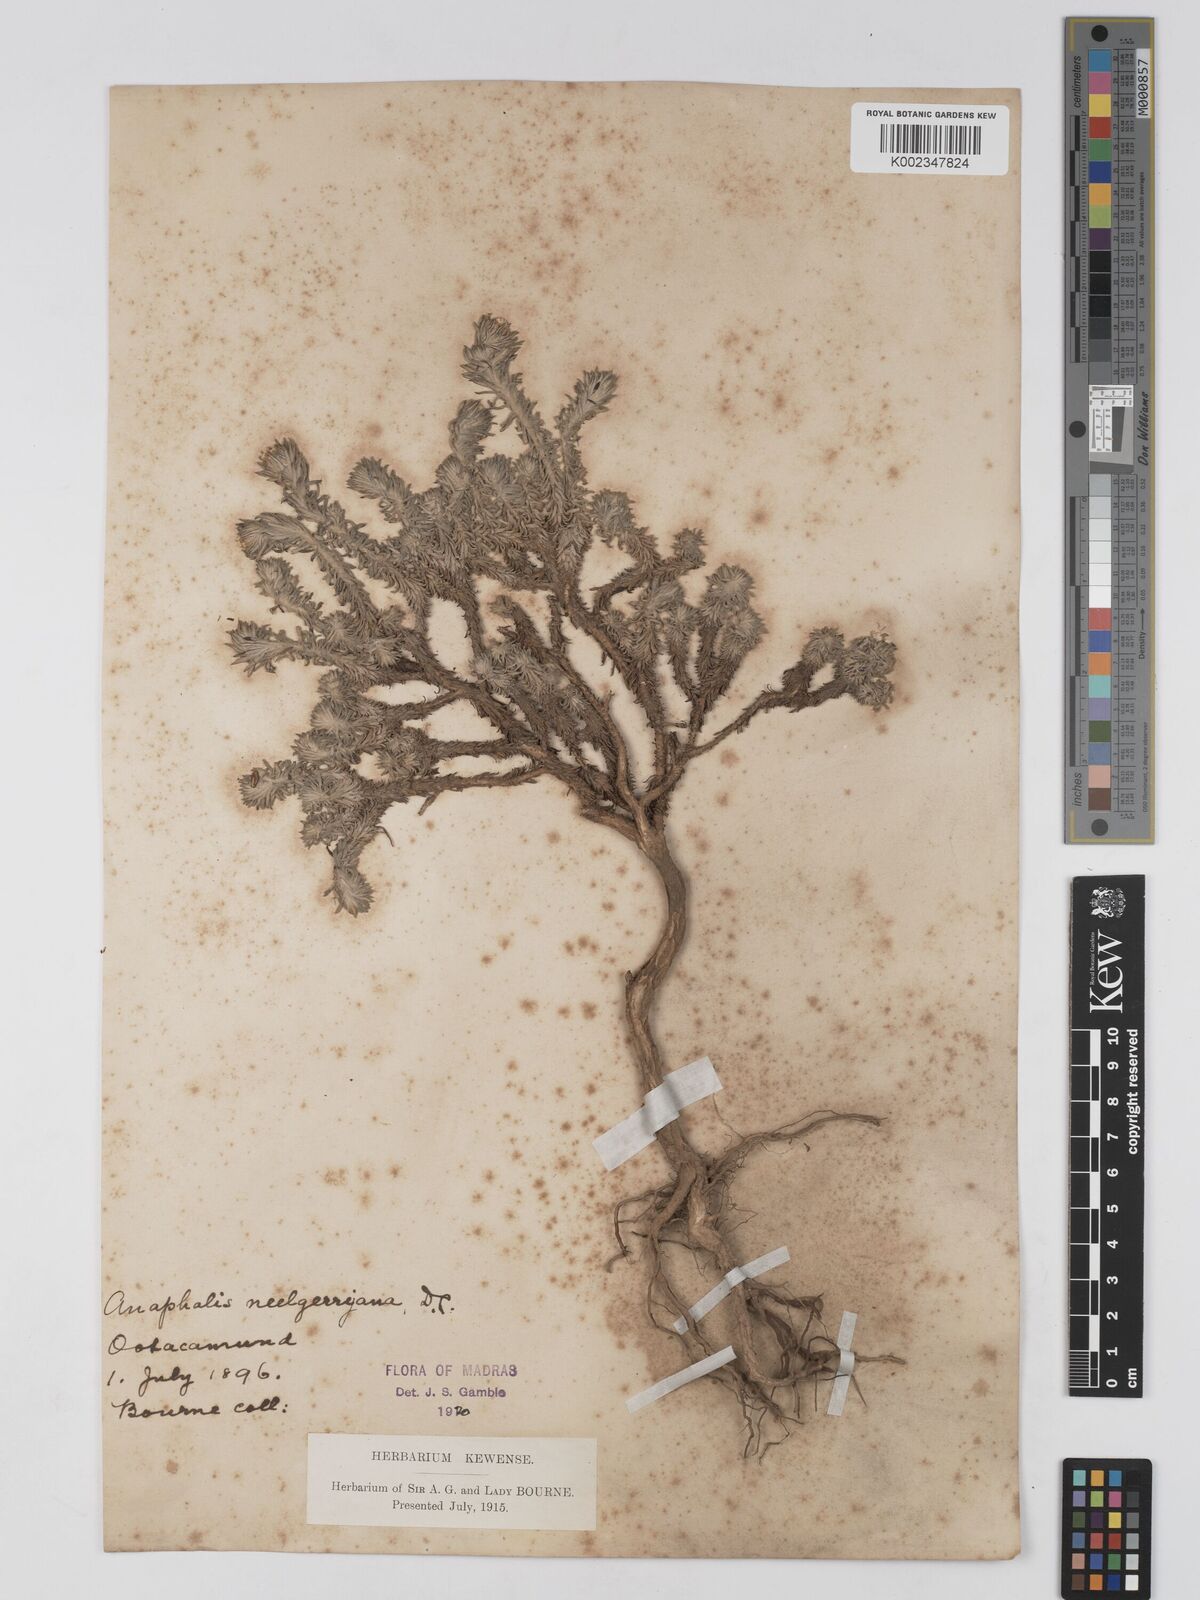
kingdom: Plantae
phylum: Tracheophyta
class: Magnoliopsida
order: Asterales
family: Asteraceae
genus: Anaphalis
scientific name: Anaphalis neelgerryana
